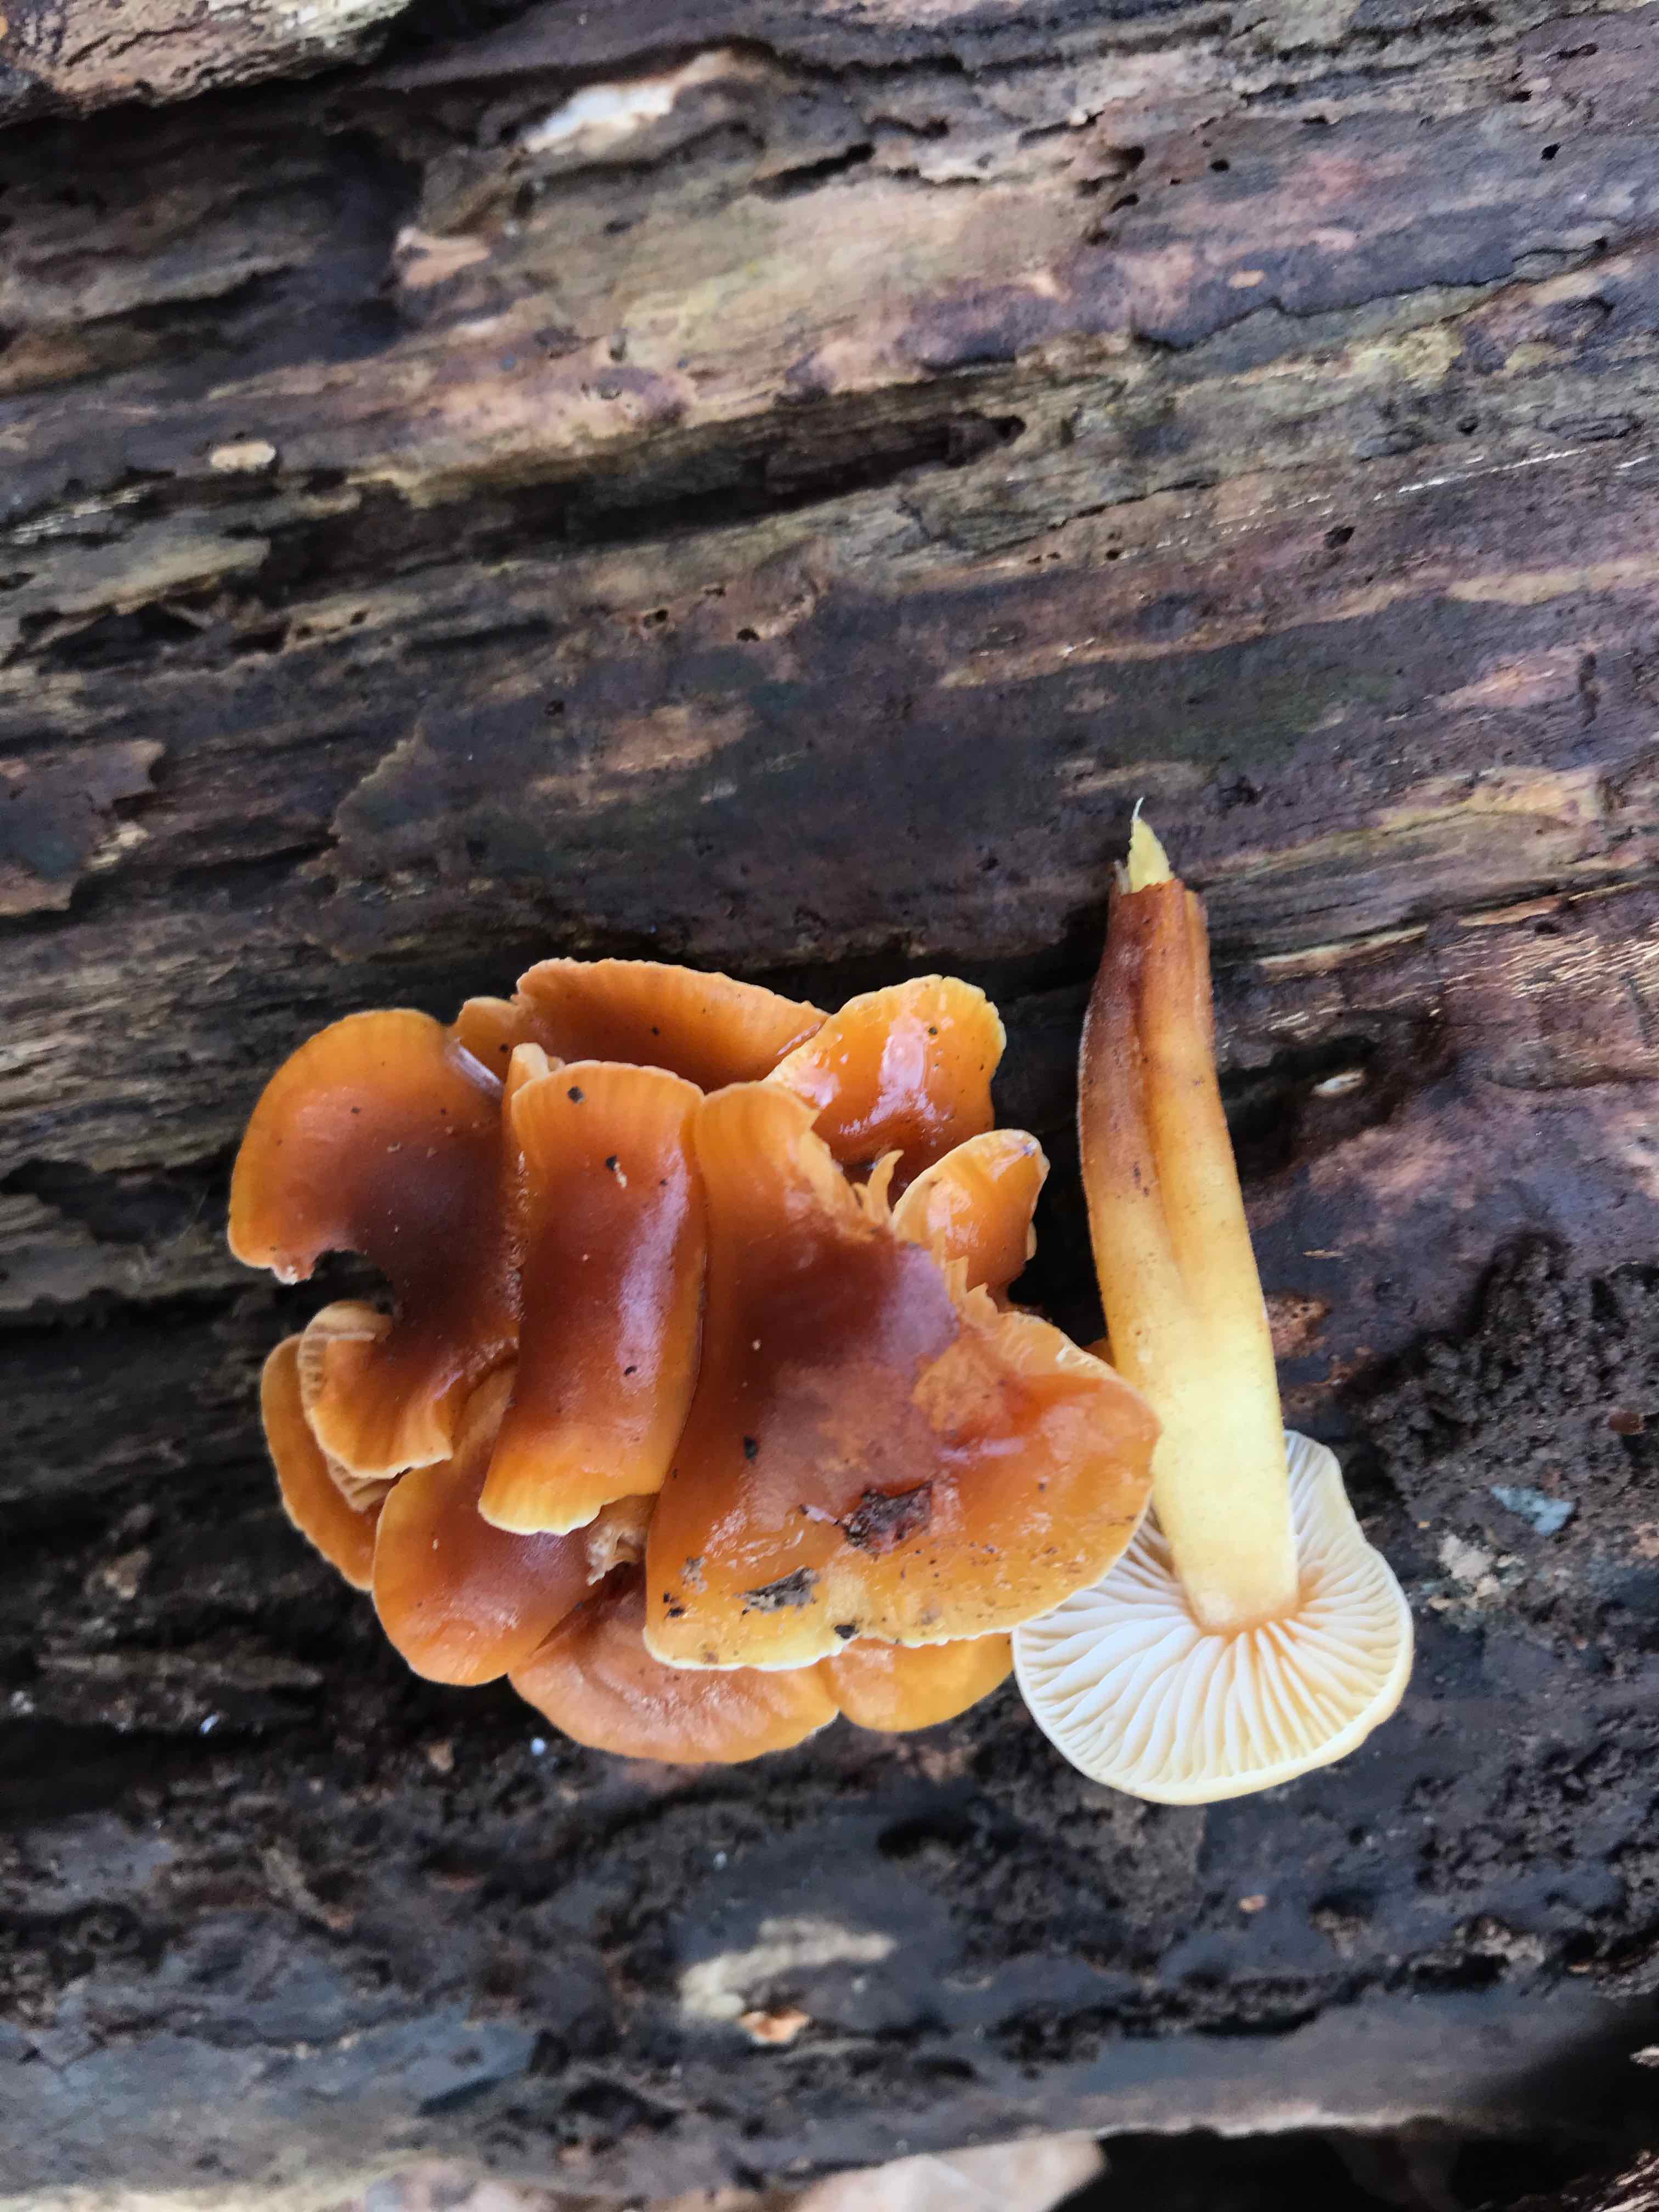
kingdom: Fungi
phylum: Basidiomycota
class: Agaricomycetes
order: Agaricales
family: Physalacriaceae
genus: Flammulina
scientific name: Flammulina velutipes
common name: gul fløjlsfod
